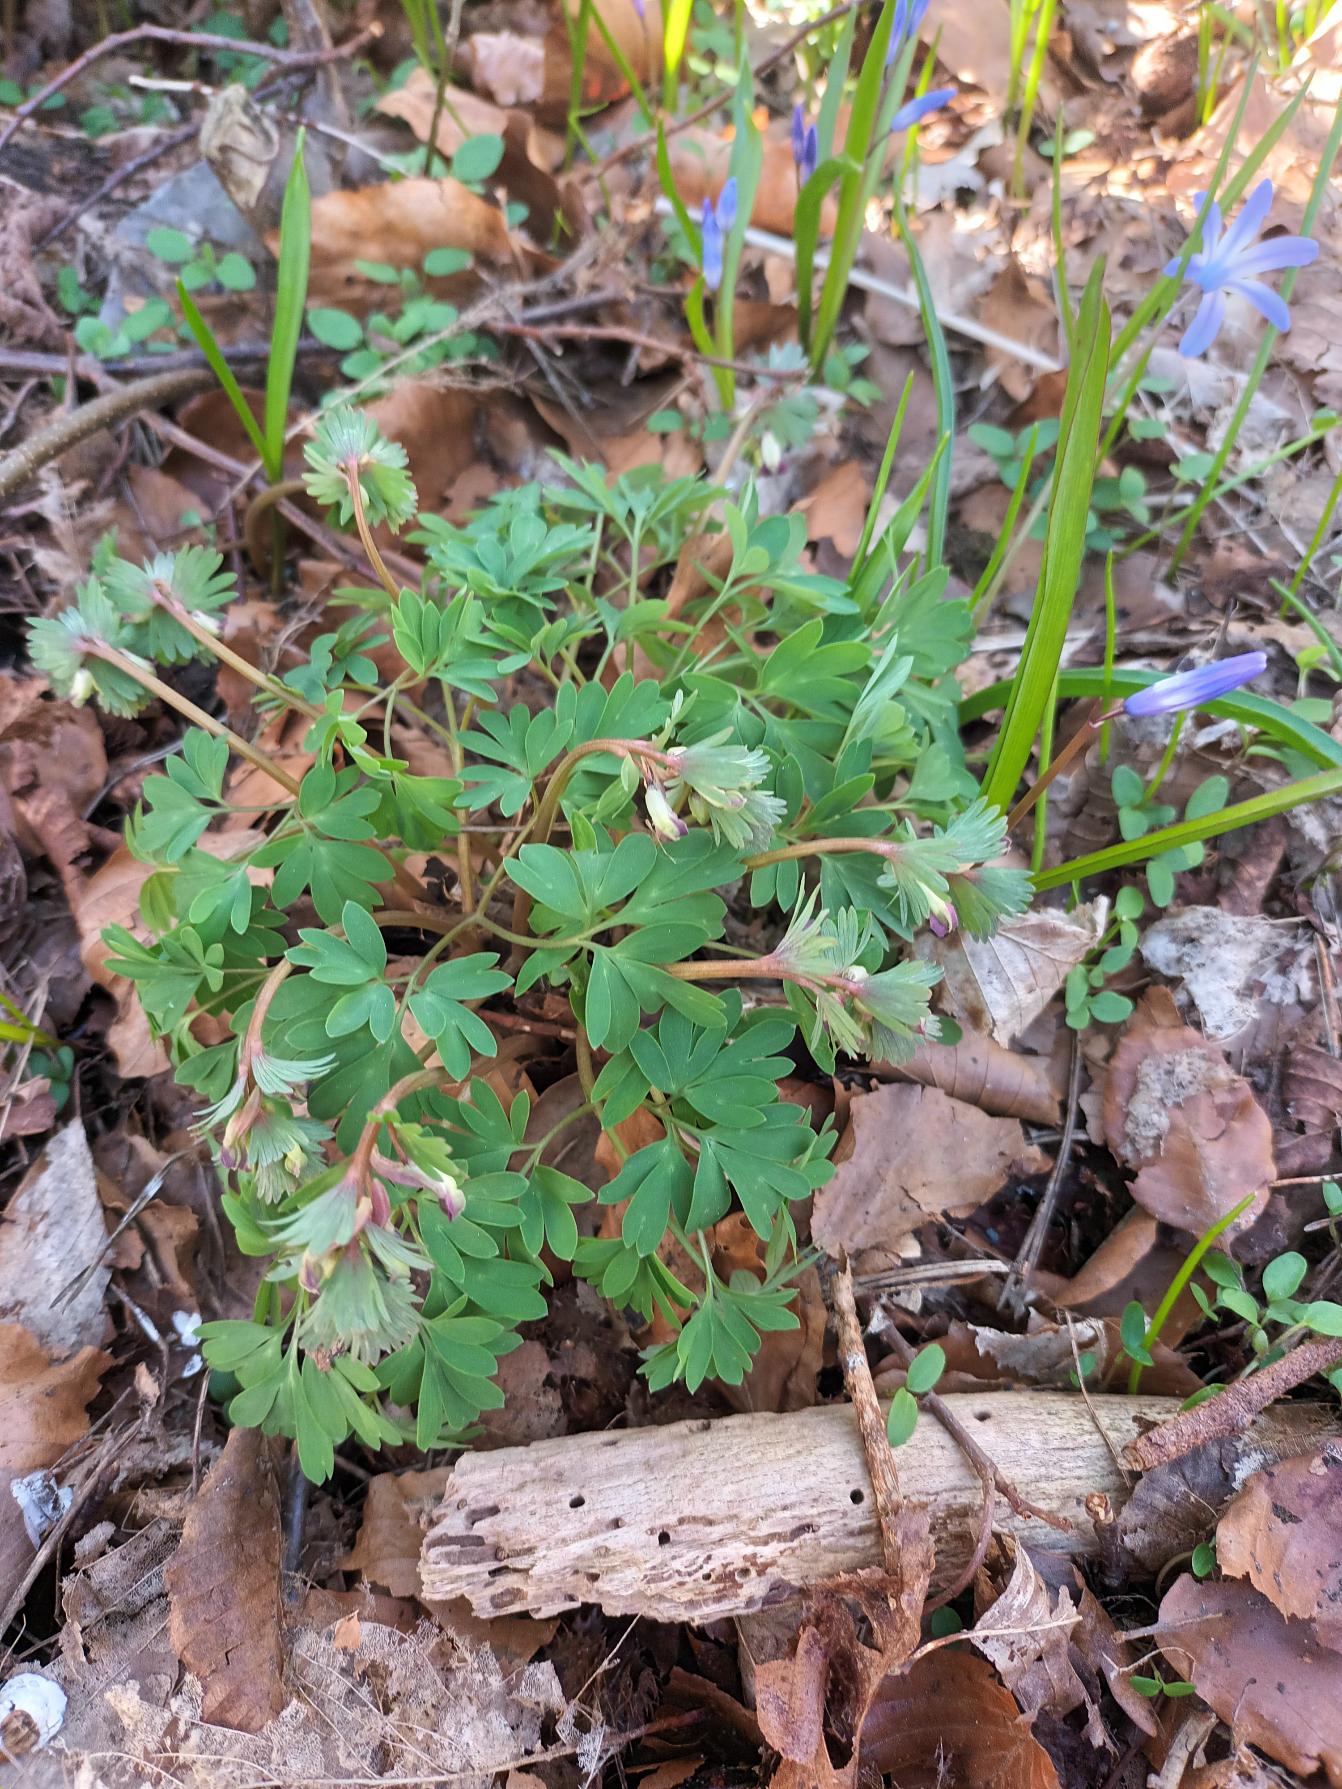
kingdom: Plantae
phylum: Tracheophyta
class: Magnoliopsida
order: Ranunculales
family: Papaveraceae
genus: Corydalis
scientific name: Corydalis solida
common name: Langstilket lærkespore
